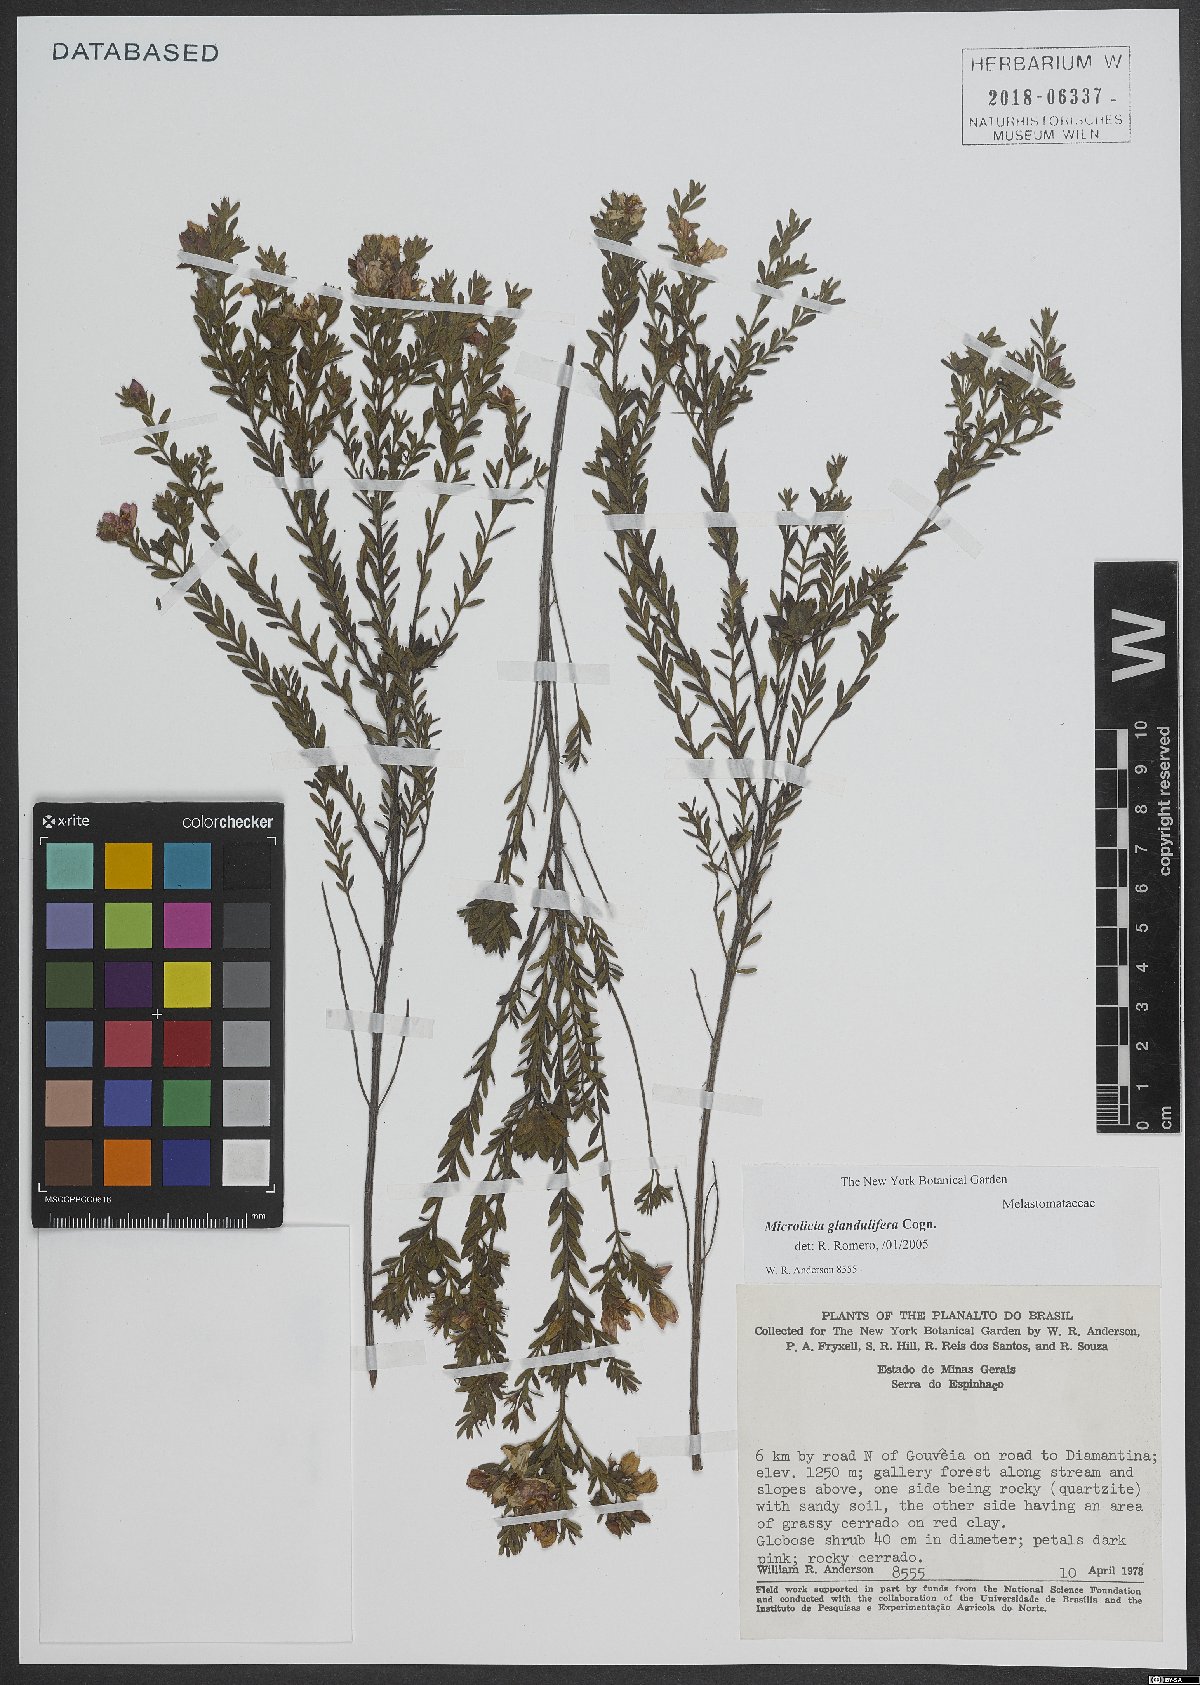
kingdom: Plantae
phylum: Tracheophyta
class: Magnoliopsida
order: Myrtales
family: Melastomataceae
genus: Microlicia
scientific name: Microlicia glandulifera
